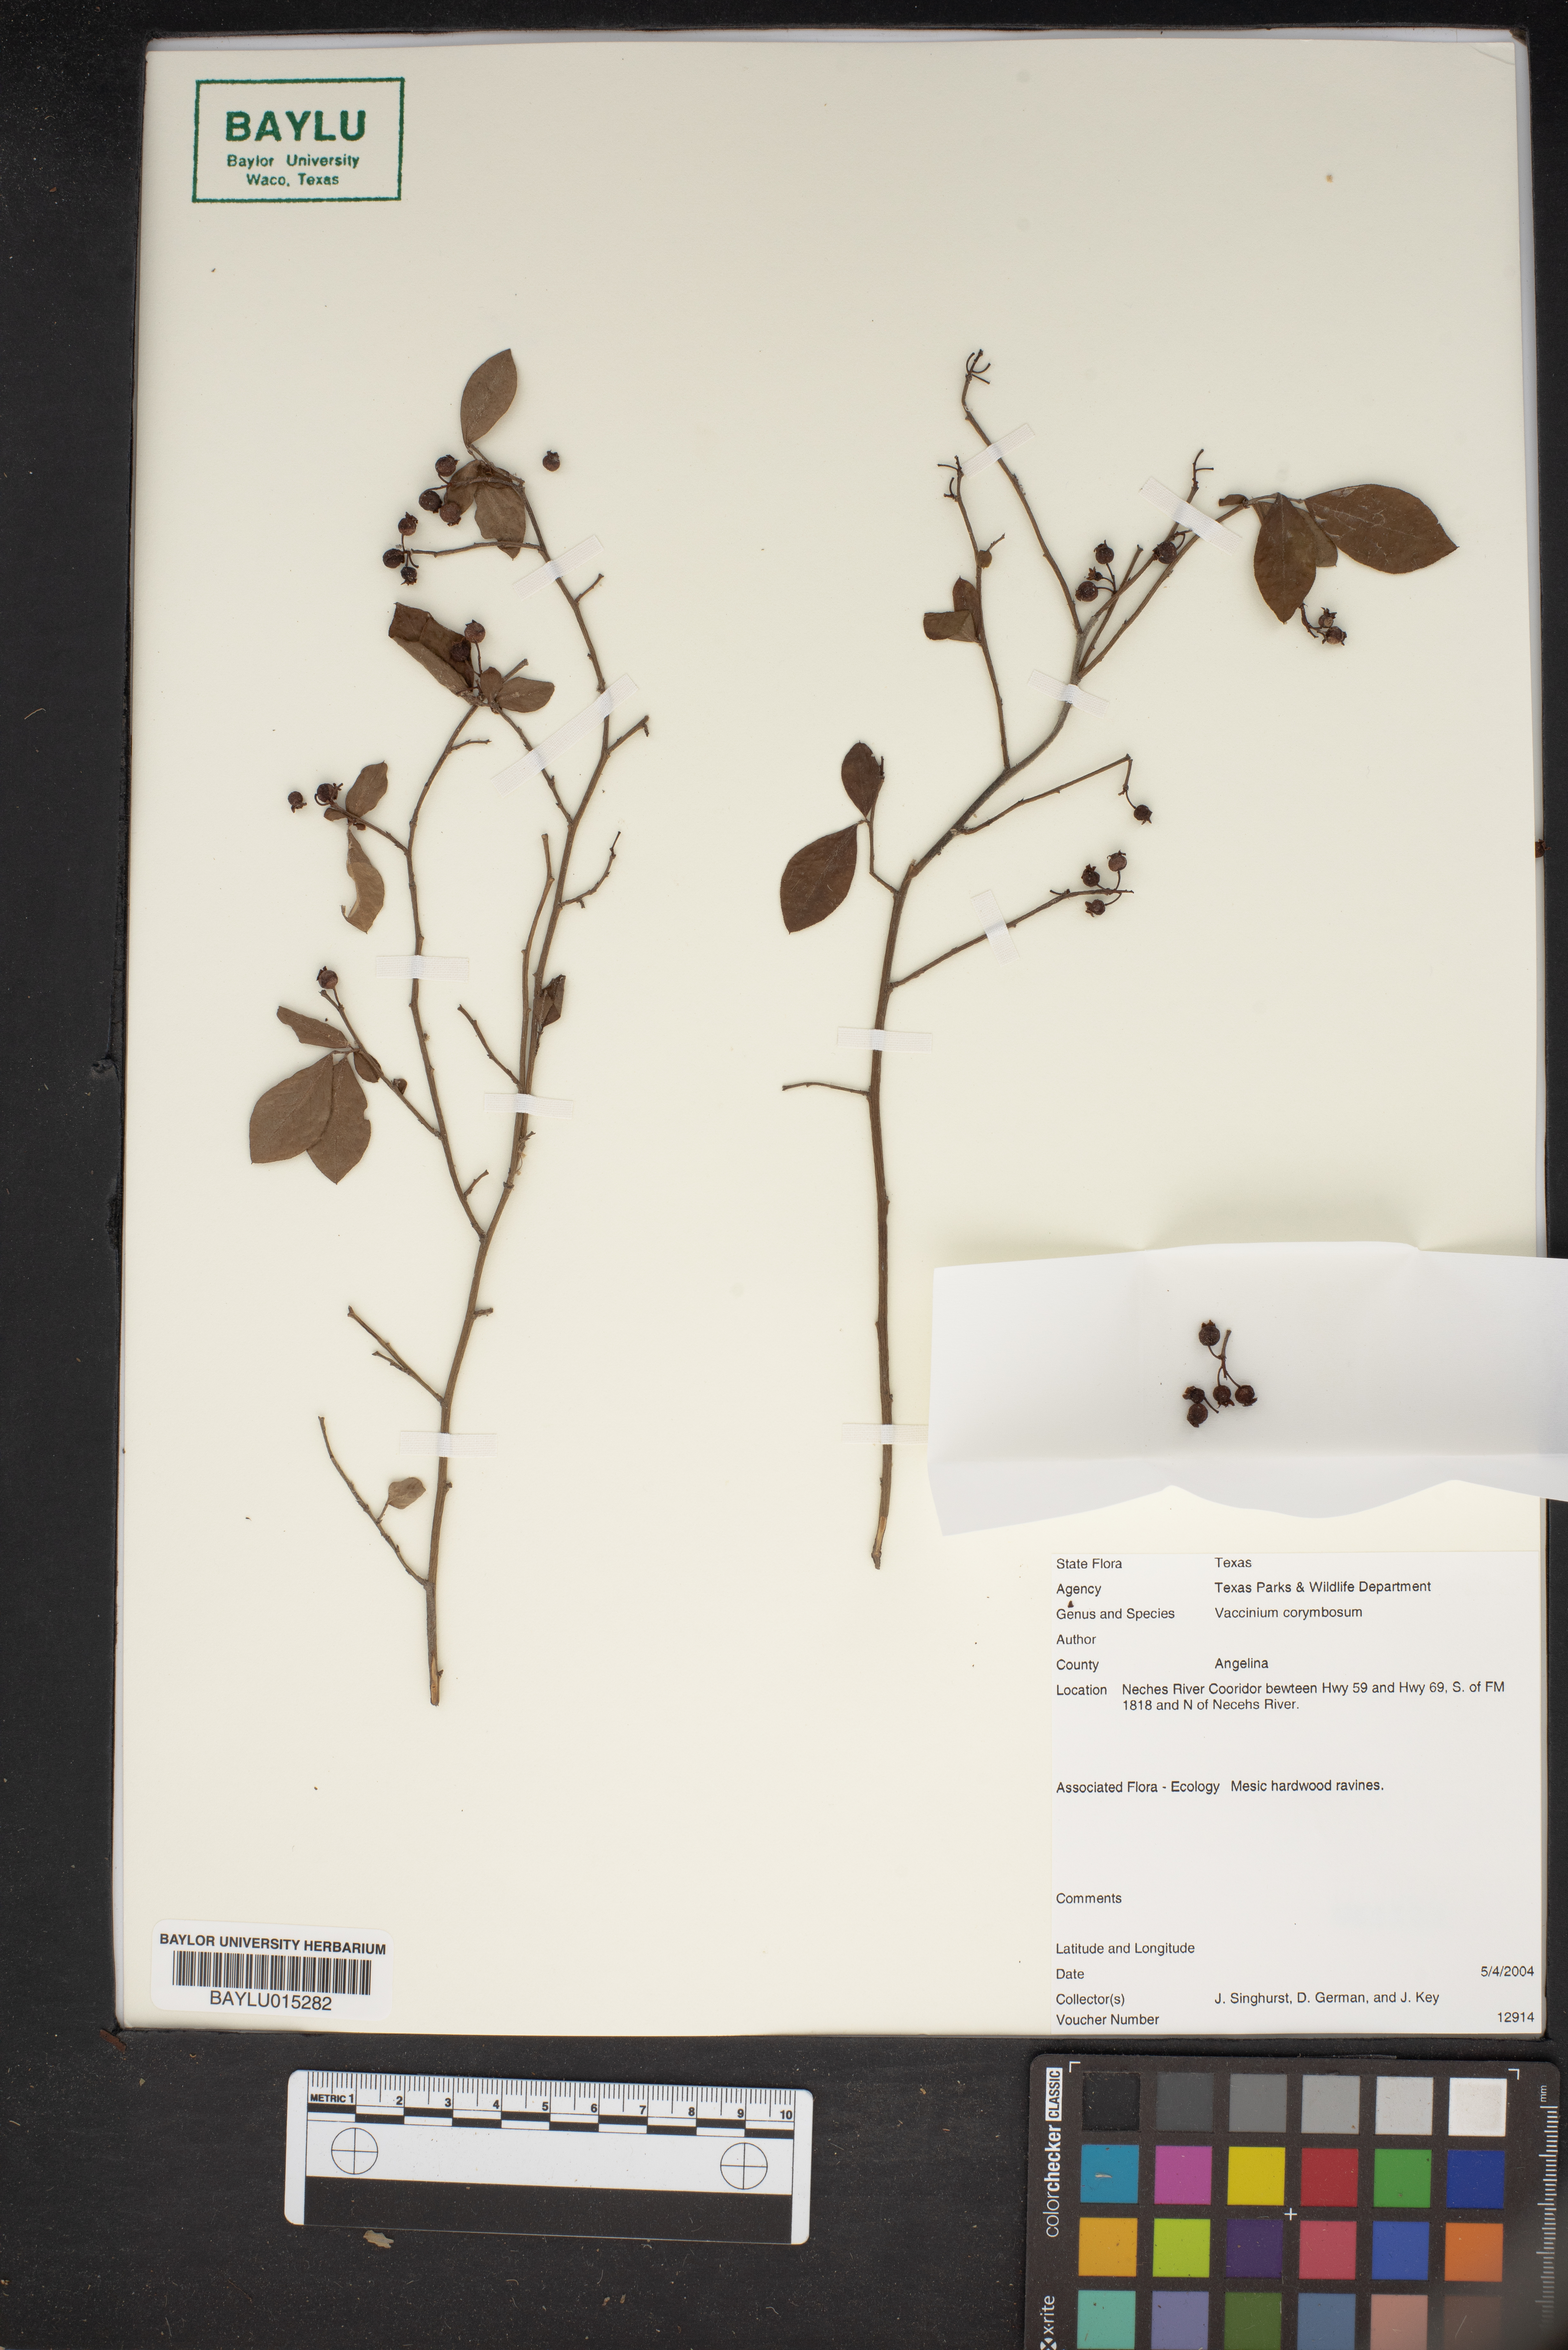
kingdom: Plantae
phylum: Tracheophyta
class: Magnoliopsida
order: Ericales
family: Ericaceae
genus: Vaccinium
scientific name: Vaccinium corymbosum
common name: Blueberry
